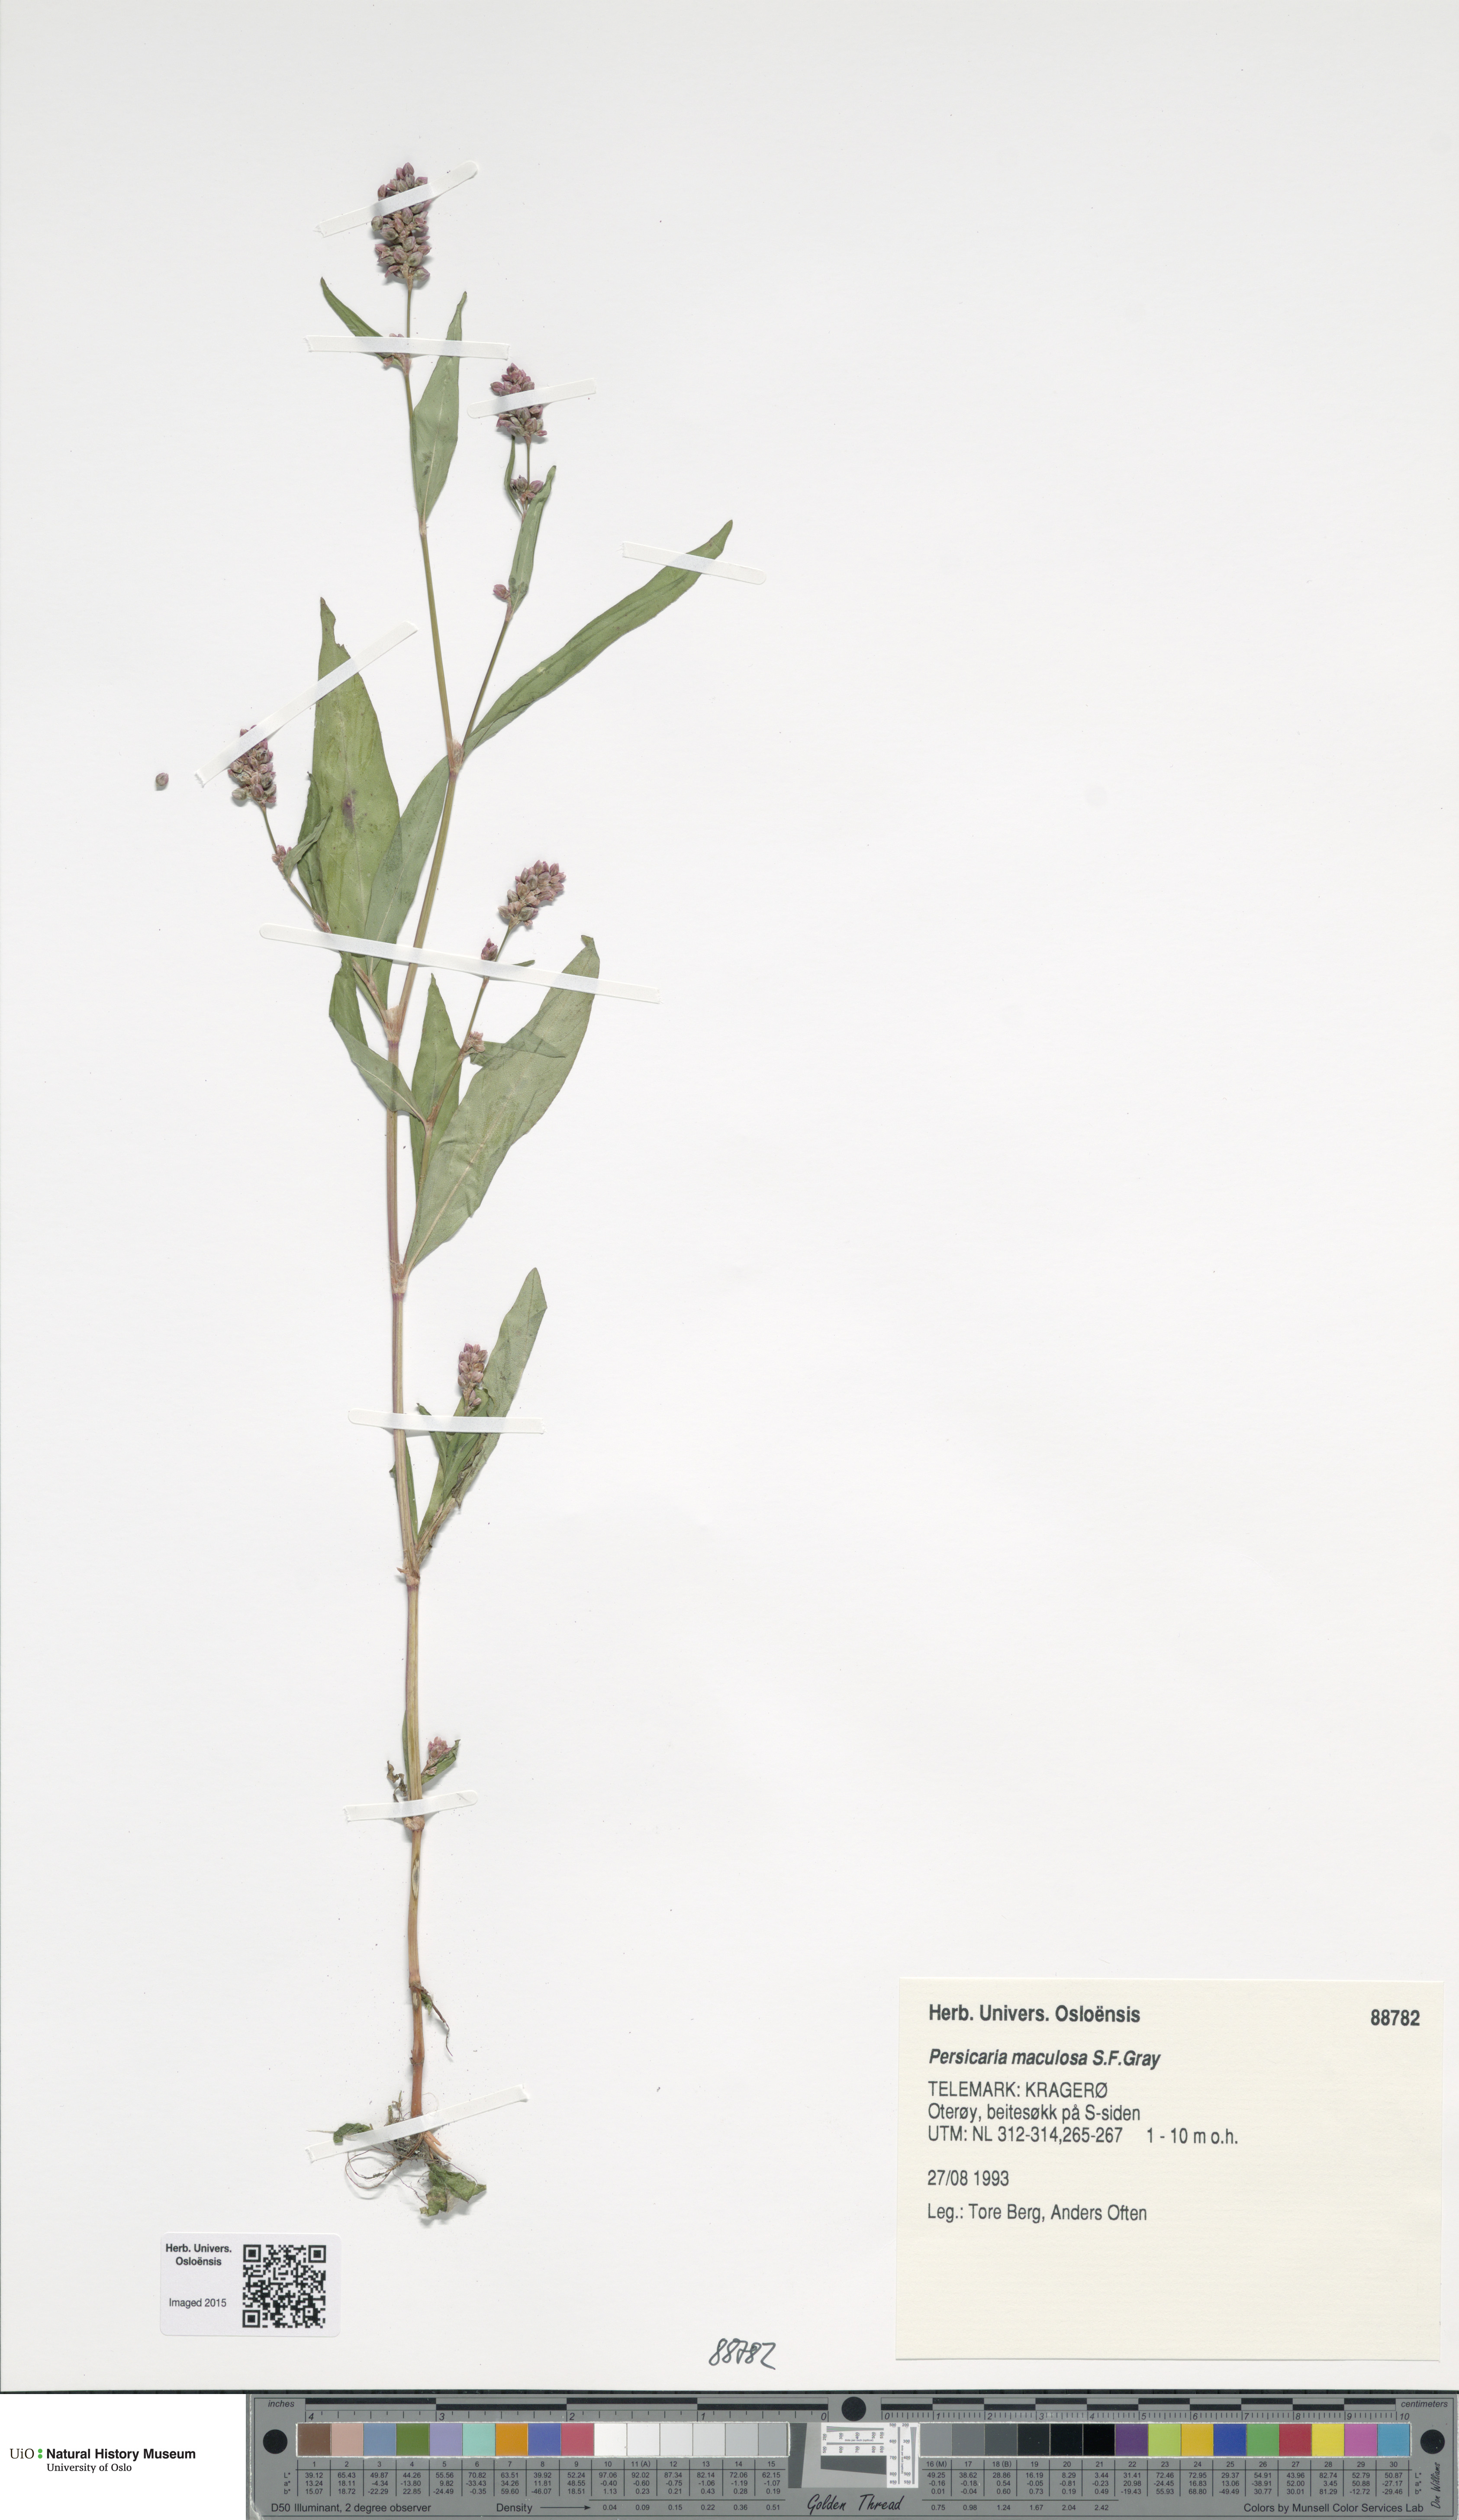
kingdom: Plantae
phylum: Tracheophyta
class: Magnoliopsida
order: Caryophyllales
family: Polygonaceae
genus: Persicaria
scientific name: Persicaria maculosa
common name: Redshank
